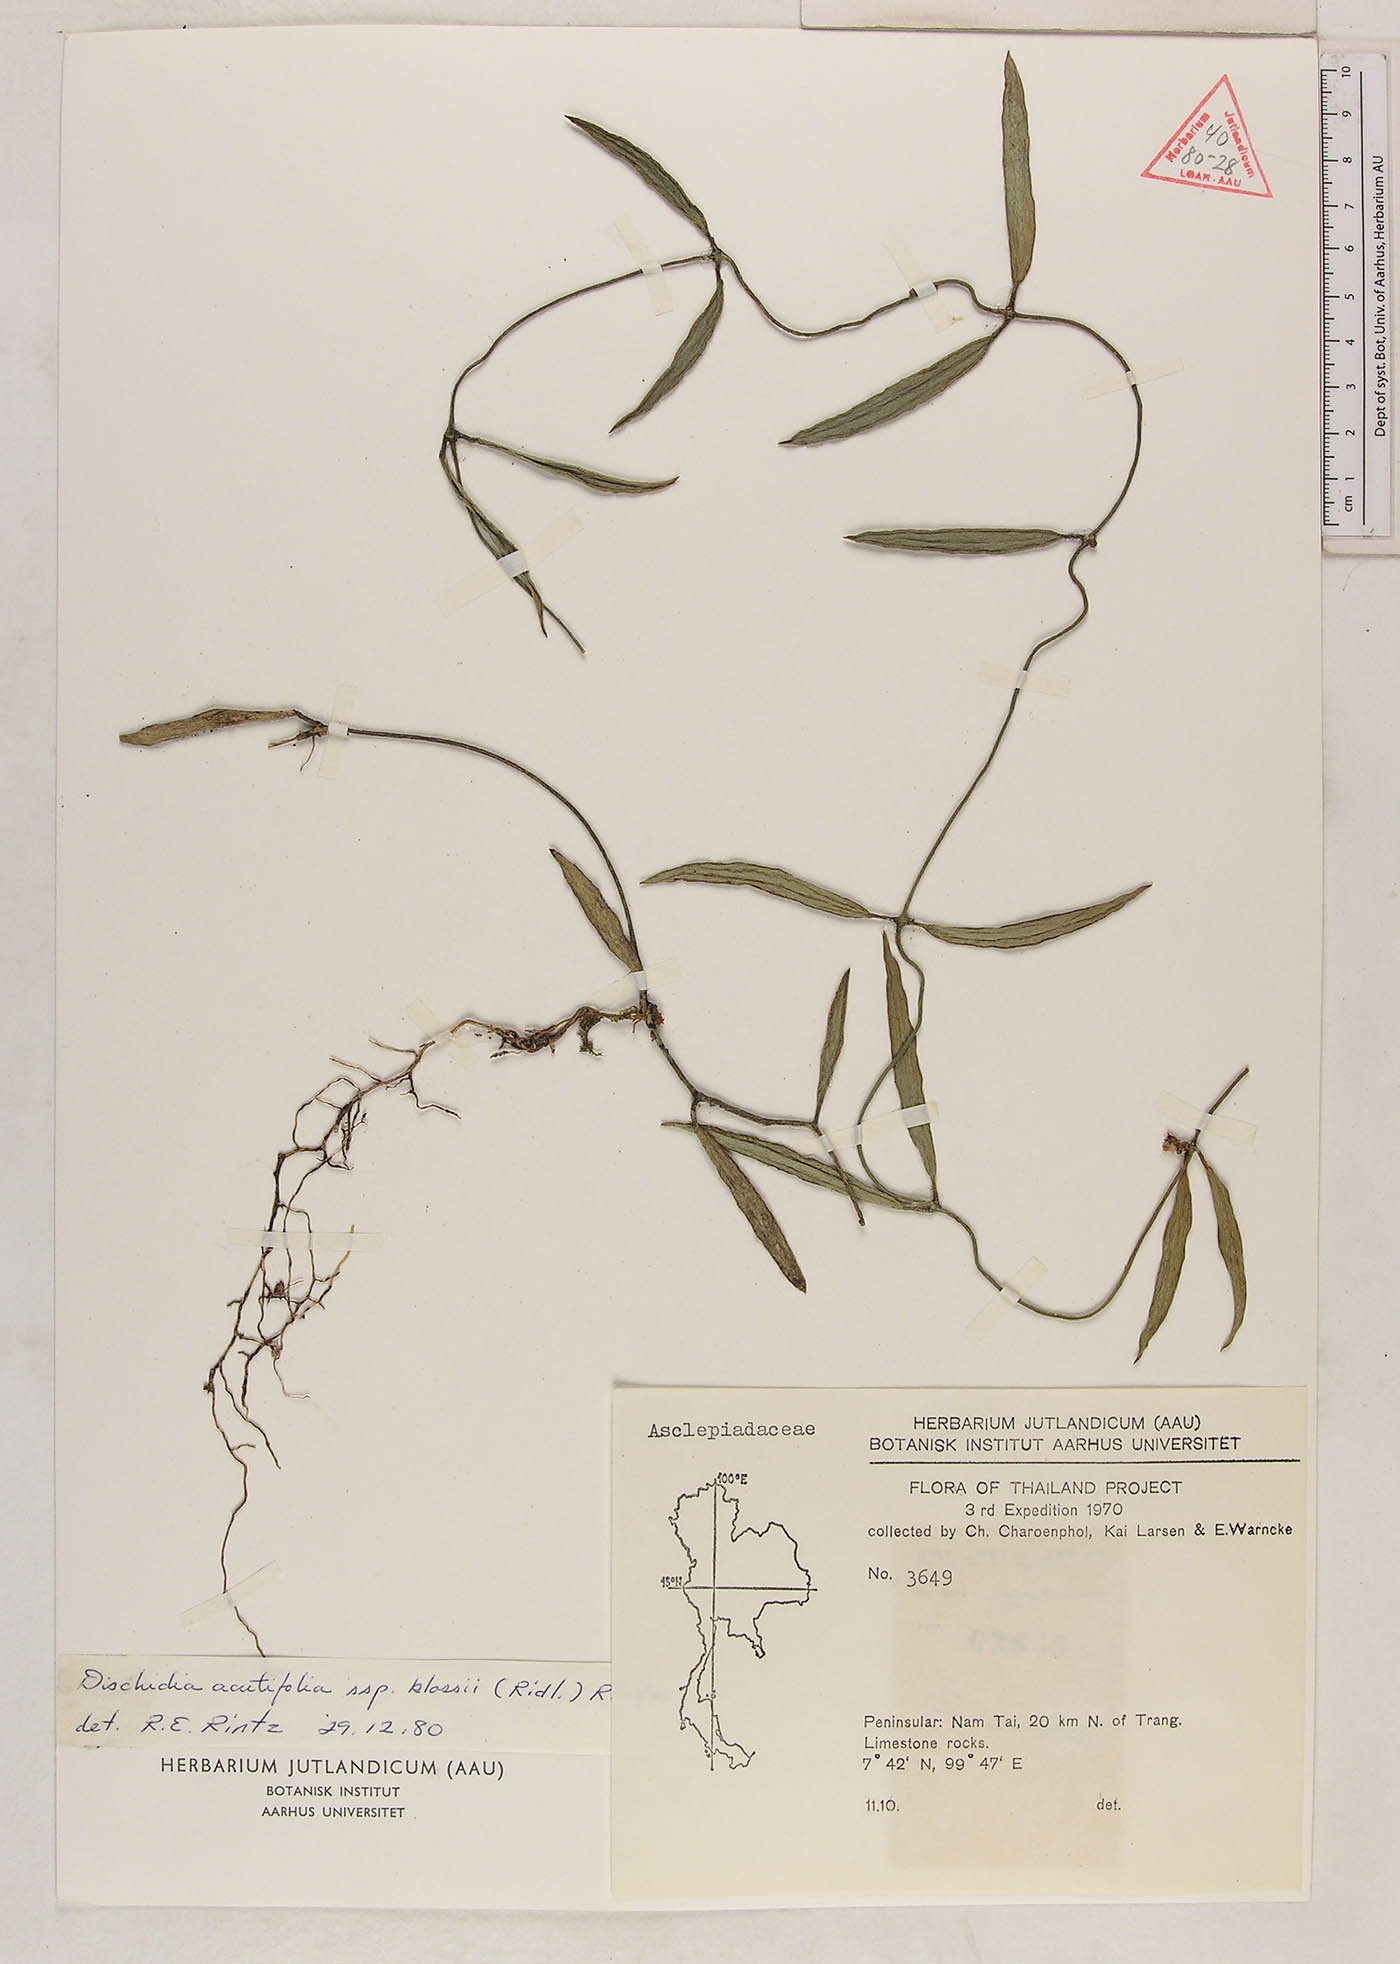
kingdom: Plantae
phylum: Tracheophyta
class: Magnoliopsida
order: Gentianales
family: Apocynaceae
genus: Dischidia
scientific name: Dischidia acutifolia
